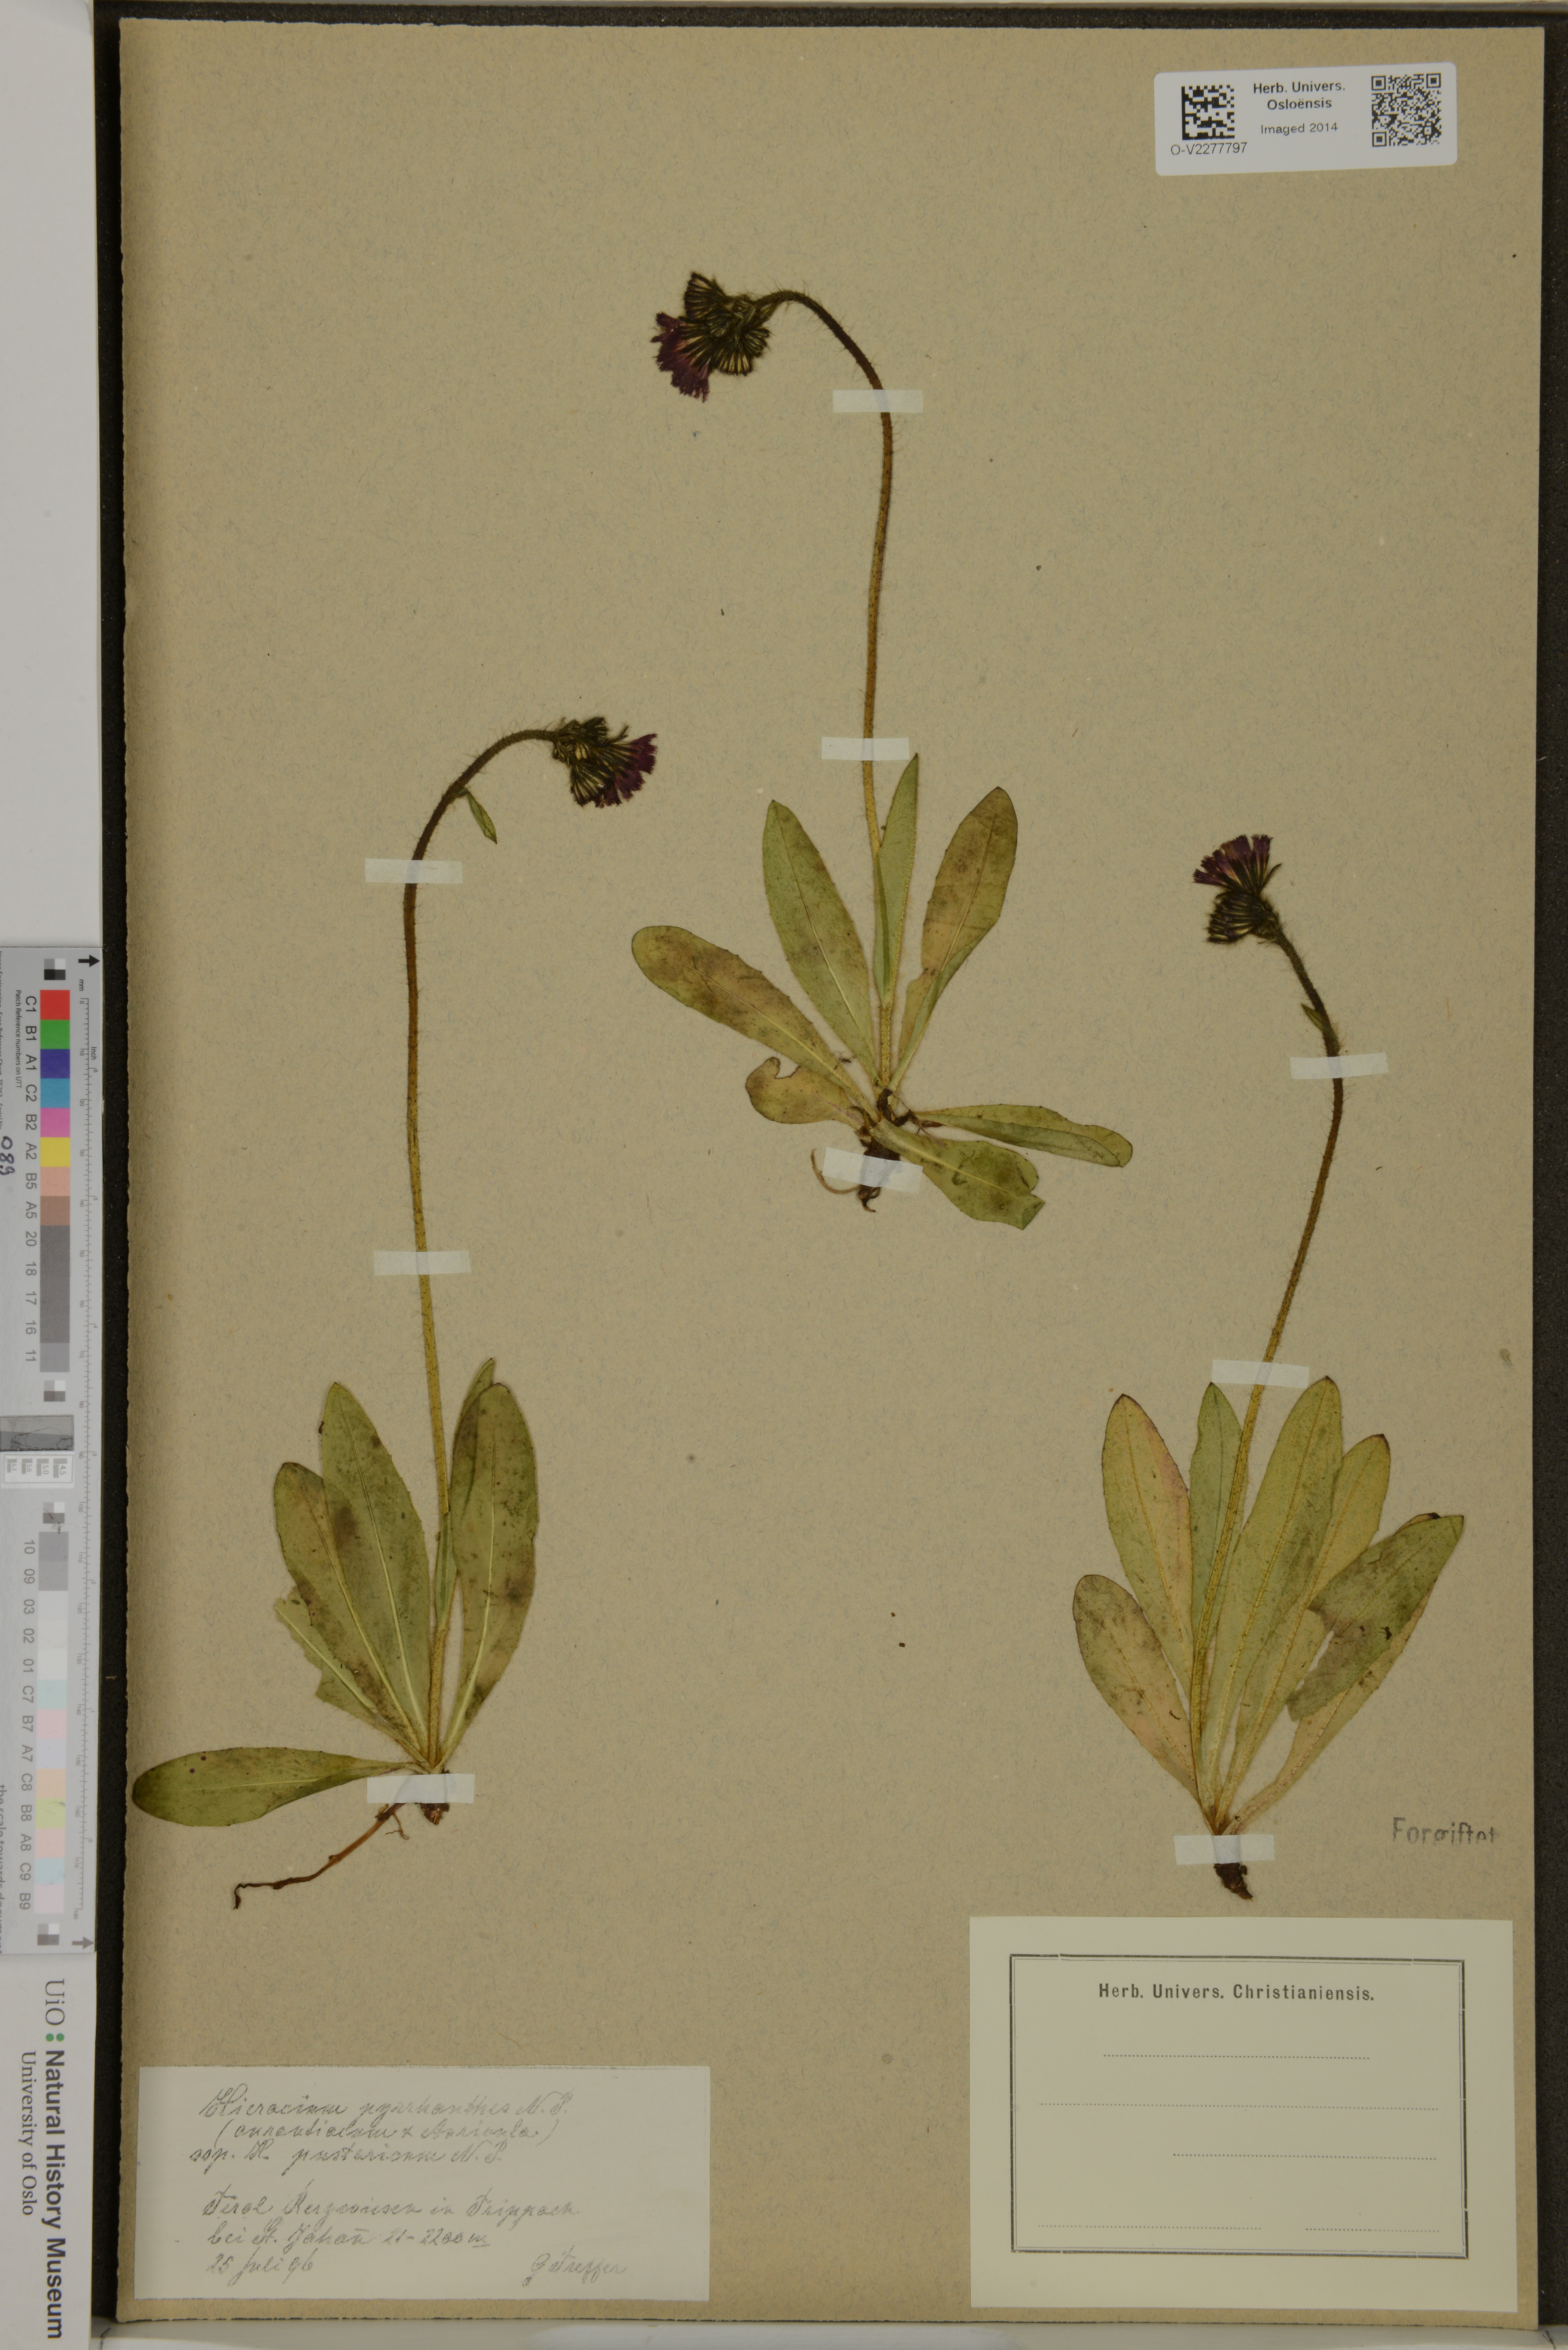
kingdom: Plantae
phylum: Tracheophyta
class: Magnoliopsida
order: Asterales
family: Asteraceae
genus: Pilosella
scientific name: Pilosella blyttiana
